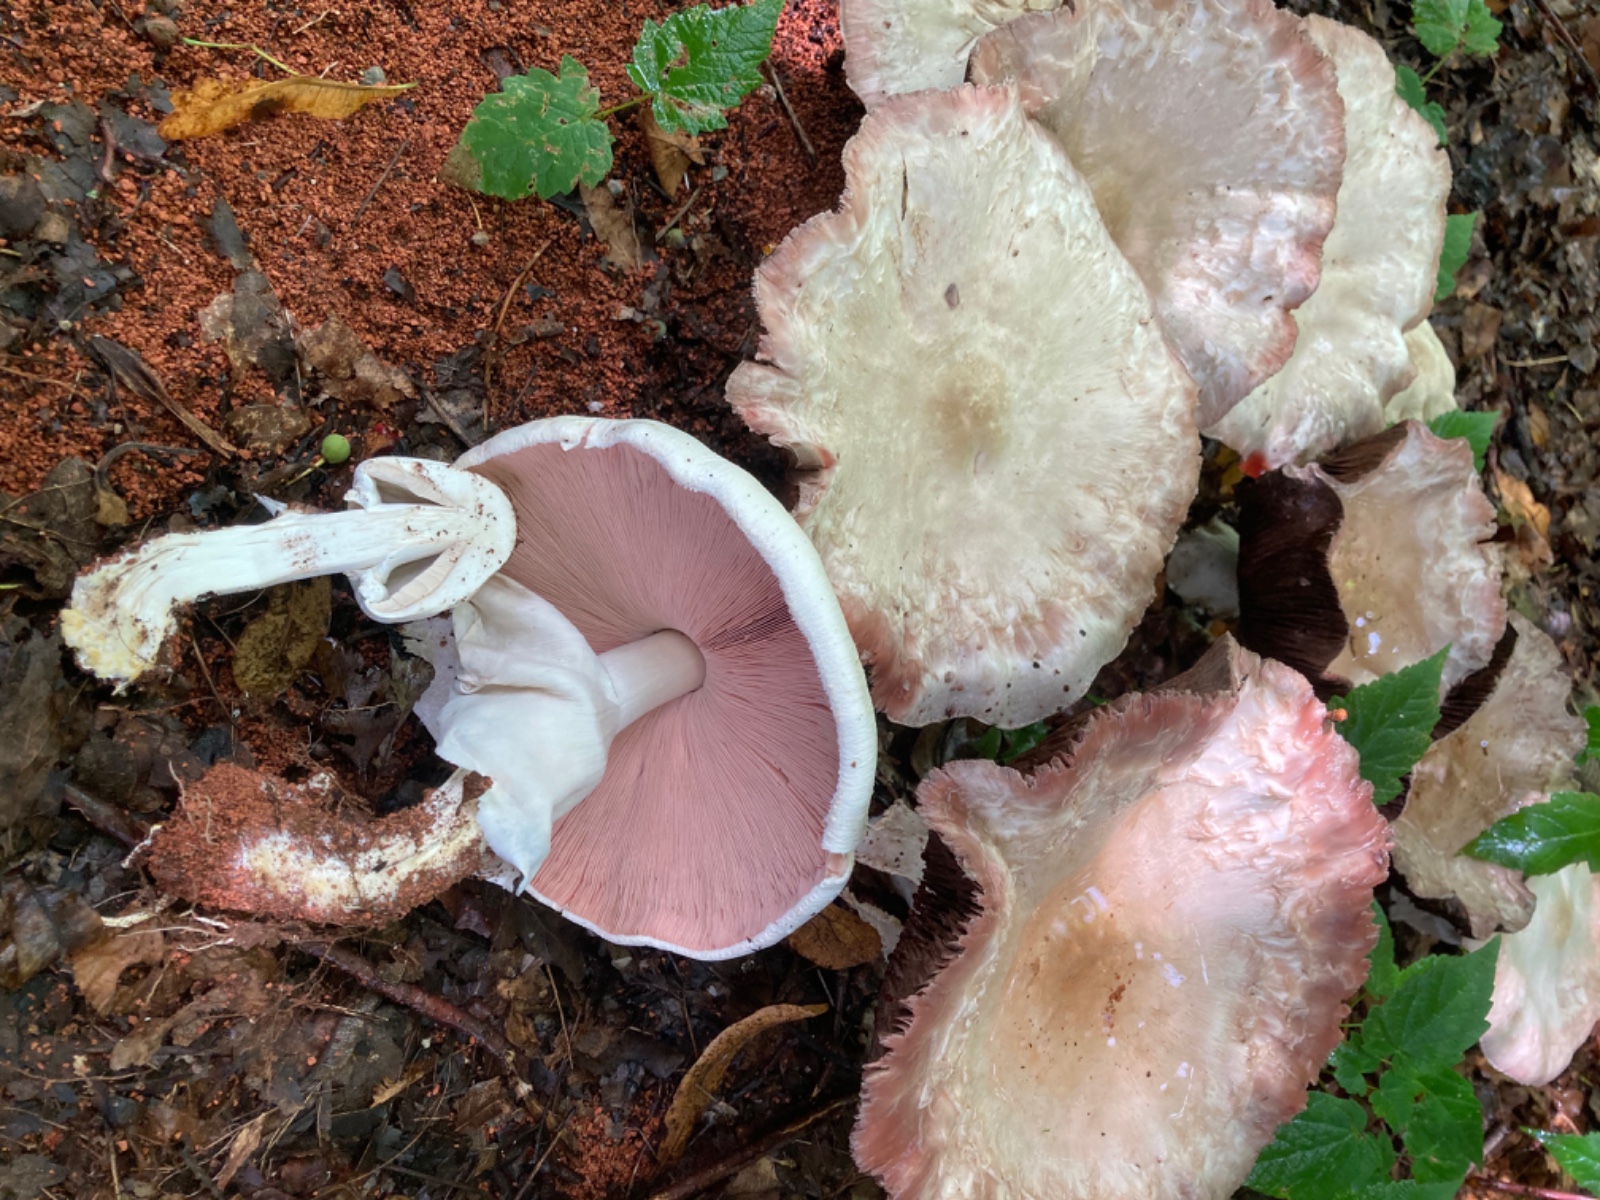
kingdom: Fungi
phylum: Basidiomycota
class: Agaricomycetes
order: Agaricales
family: Agaricaceae
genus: Agaricus
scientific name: Agaricus xanthodermus
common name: karbol-champignon
